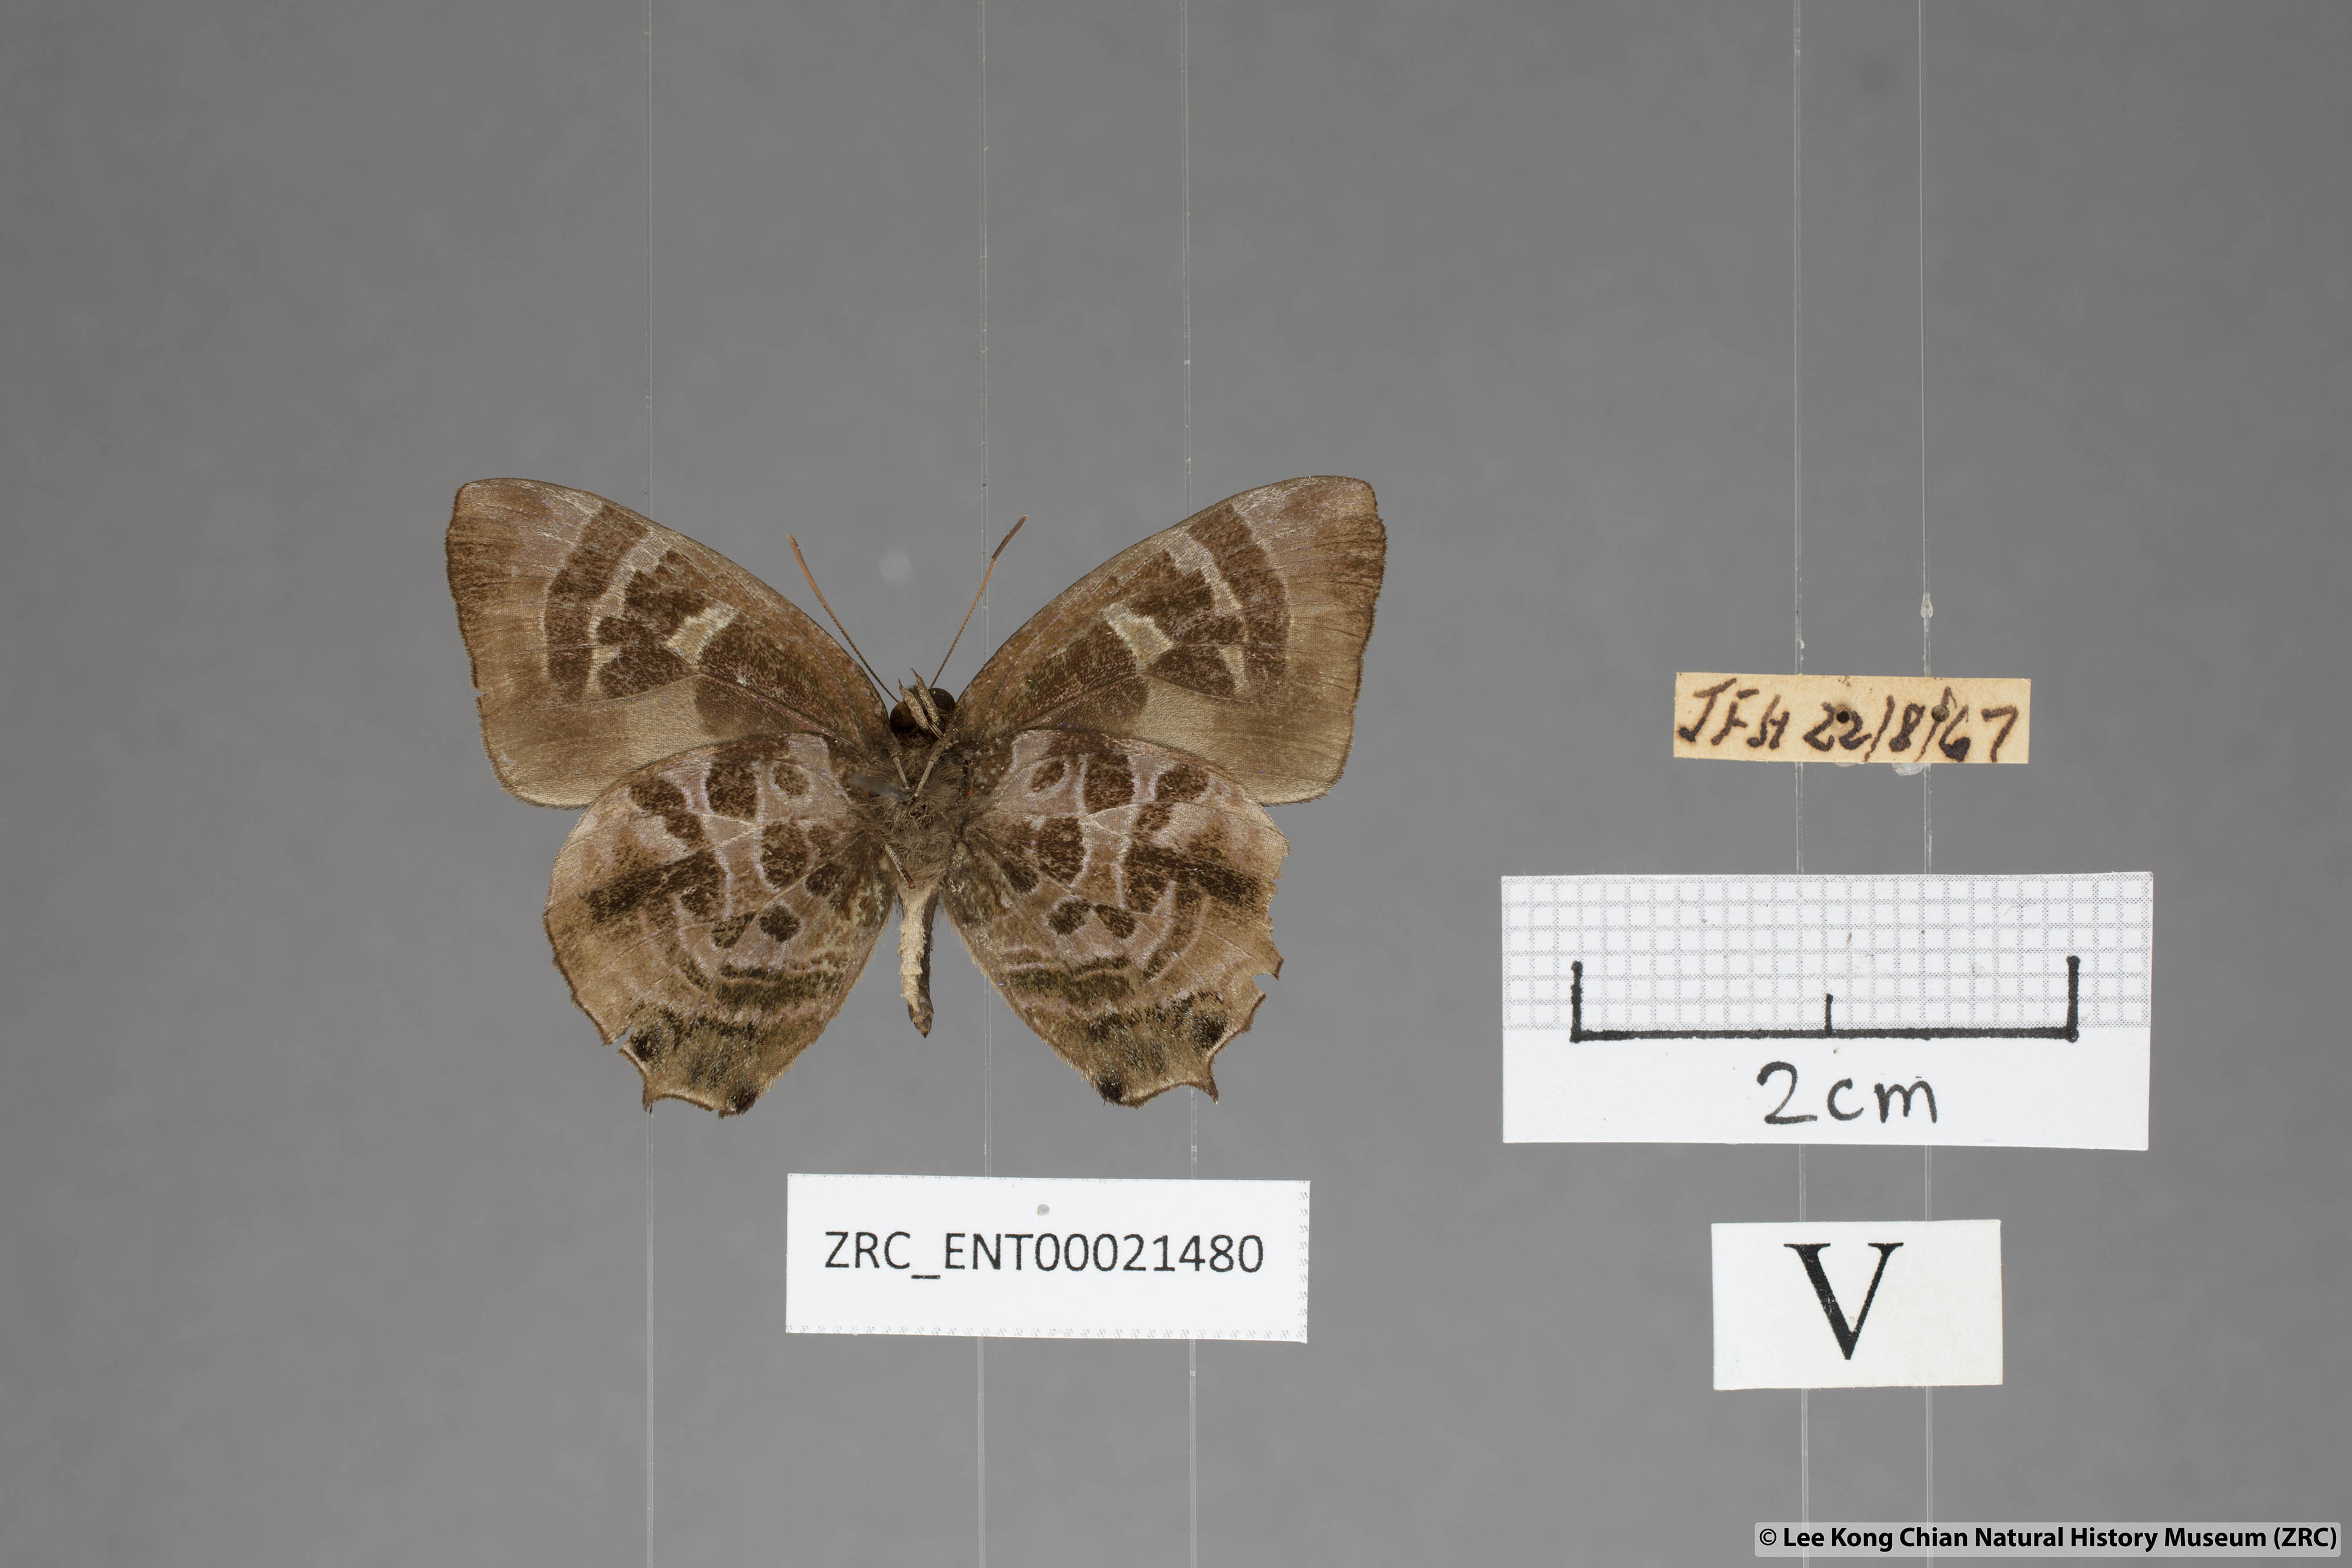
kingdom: Animalia
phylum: Arthropoda
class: Insecta
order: Lepidoptera
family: Lycaenidae
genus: Flos
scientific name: Flos
